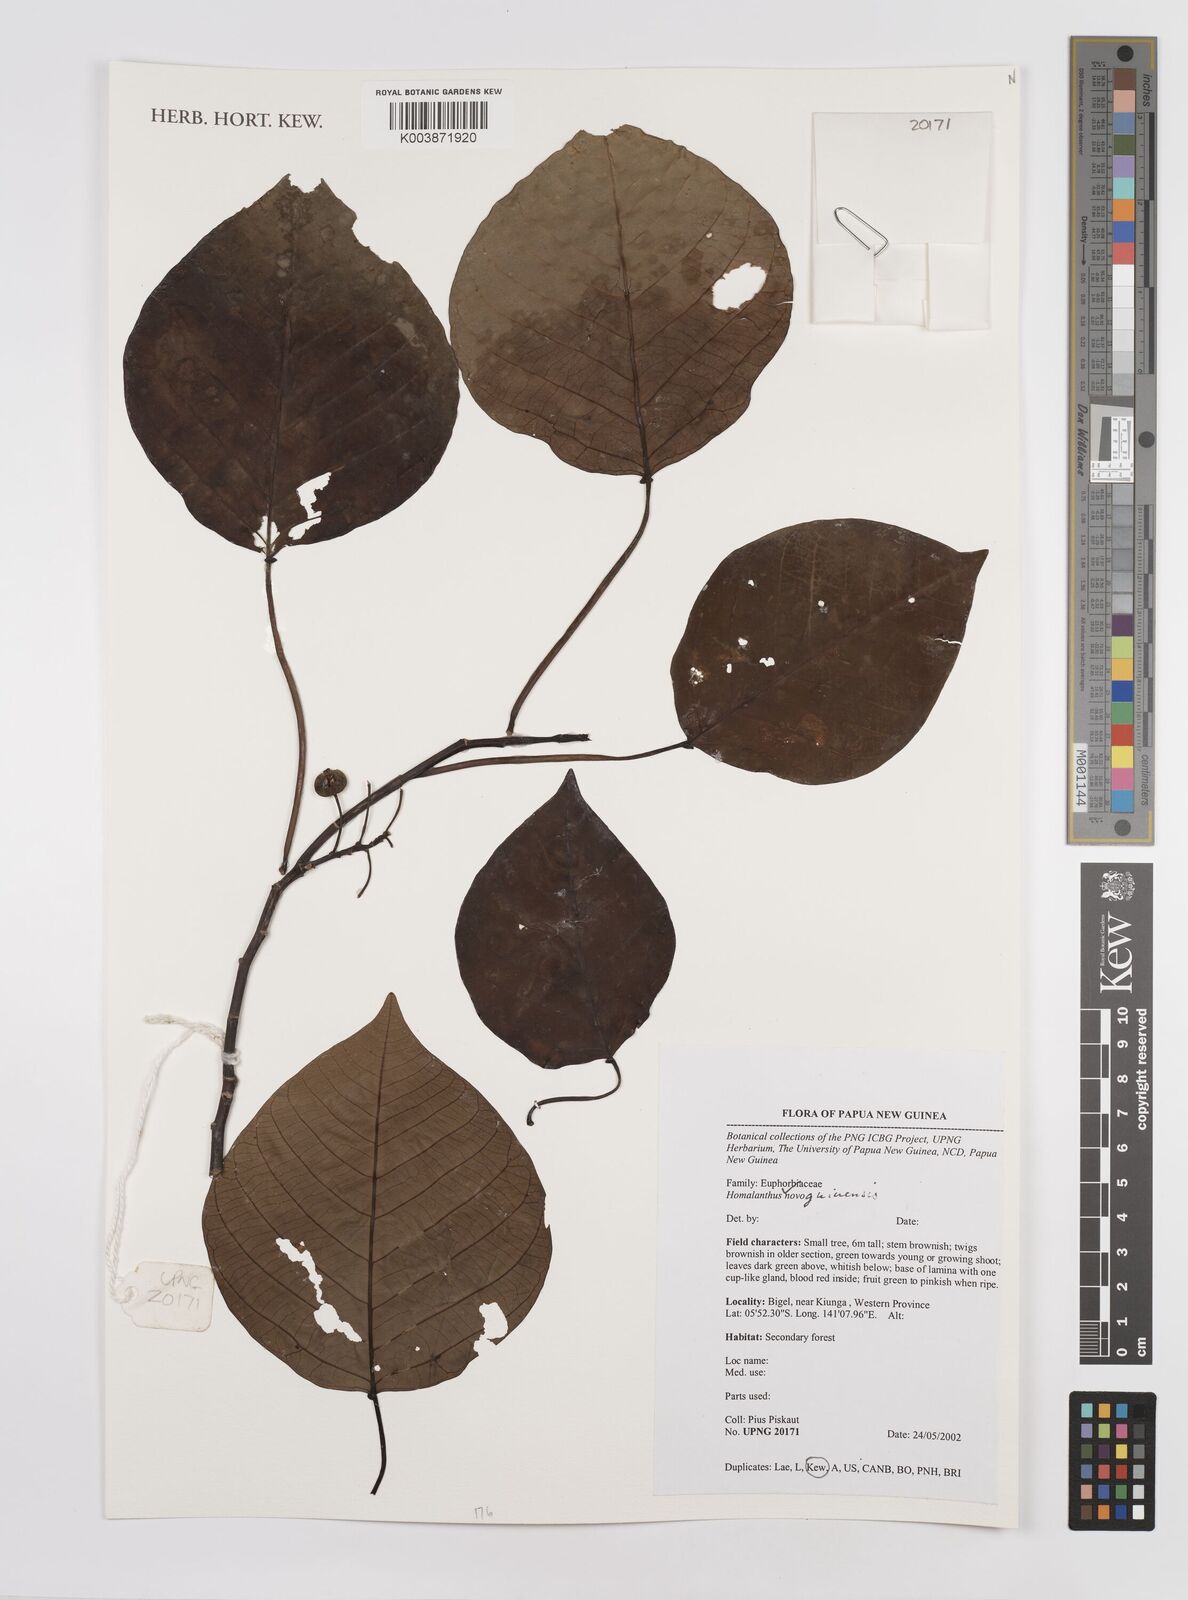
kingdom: Plantae
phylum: Tracheophyta
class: Magnoliopsida
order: Malpighiales
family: Euphorbiaceae
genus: Homalanthus
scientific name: Homalanthus novoguineensis
